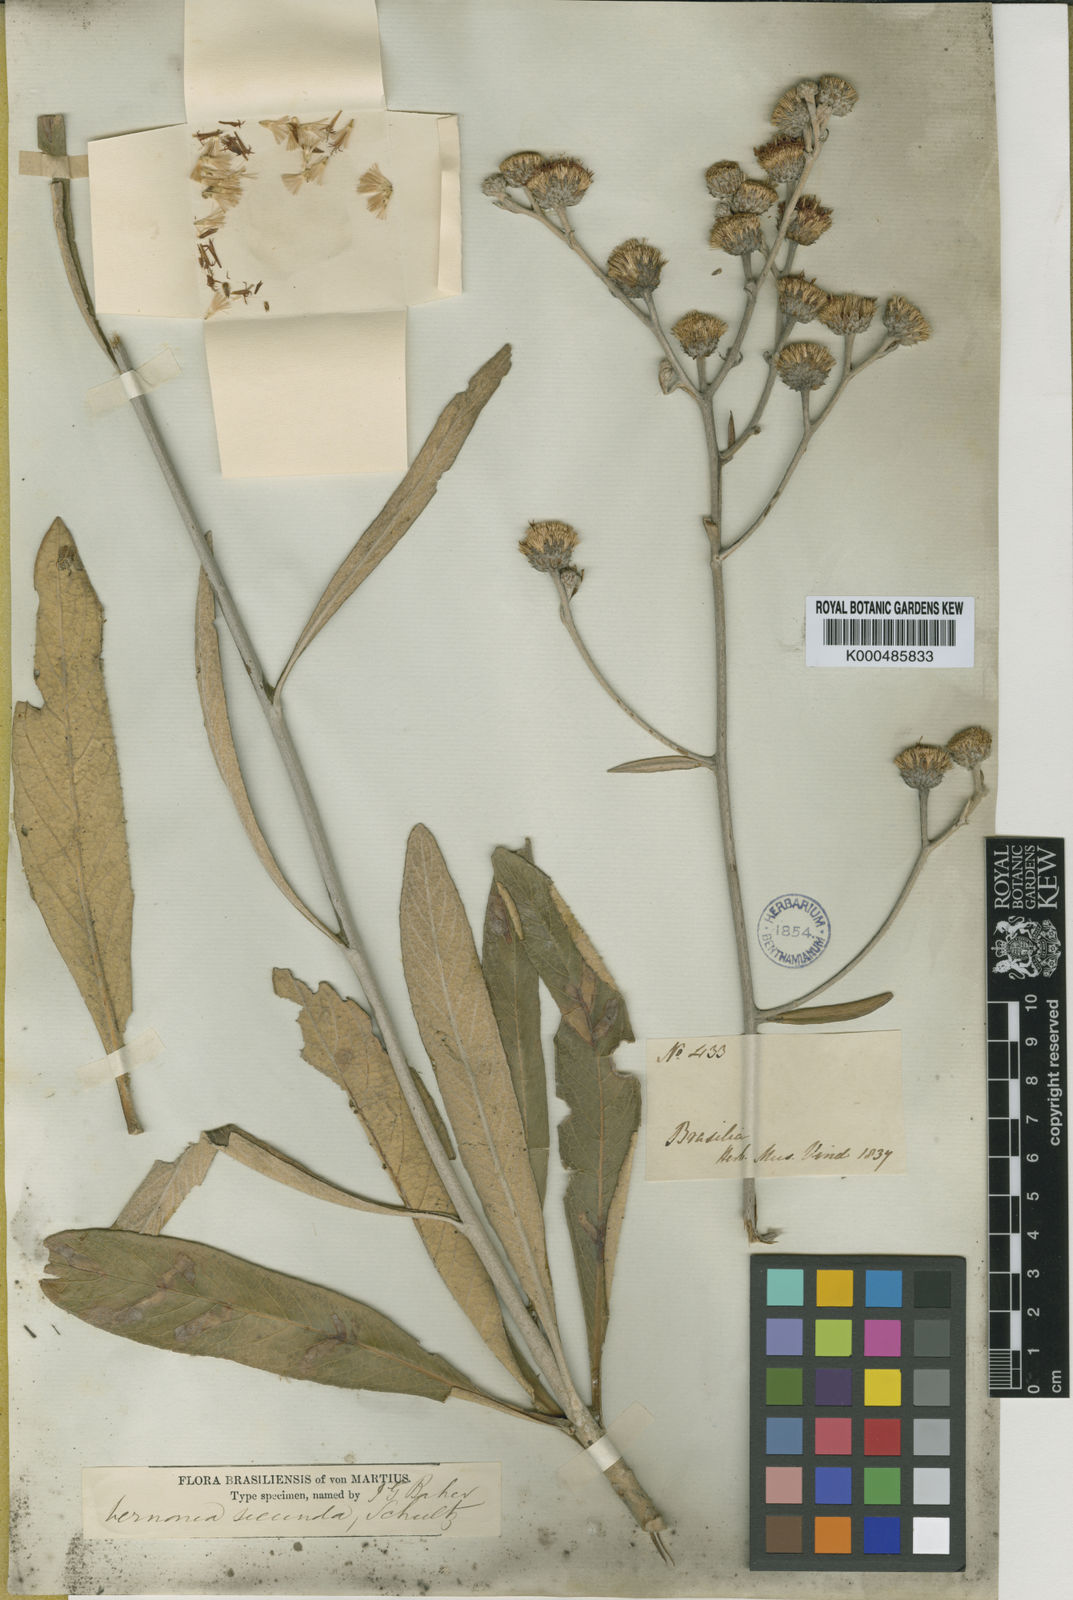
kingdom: Plantae
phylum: Tracheophyta
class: Magnoliopsida
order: Asterales
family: Asteraceae
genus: Lessingianthus
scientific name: Lessingianthus secundus
